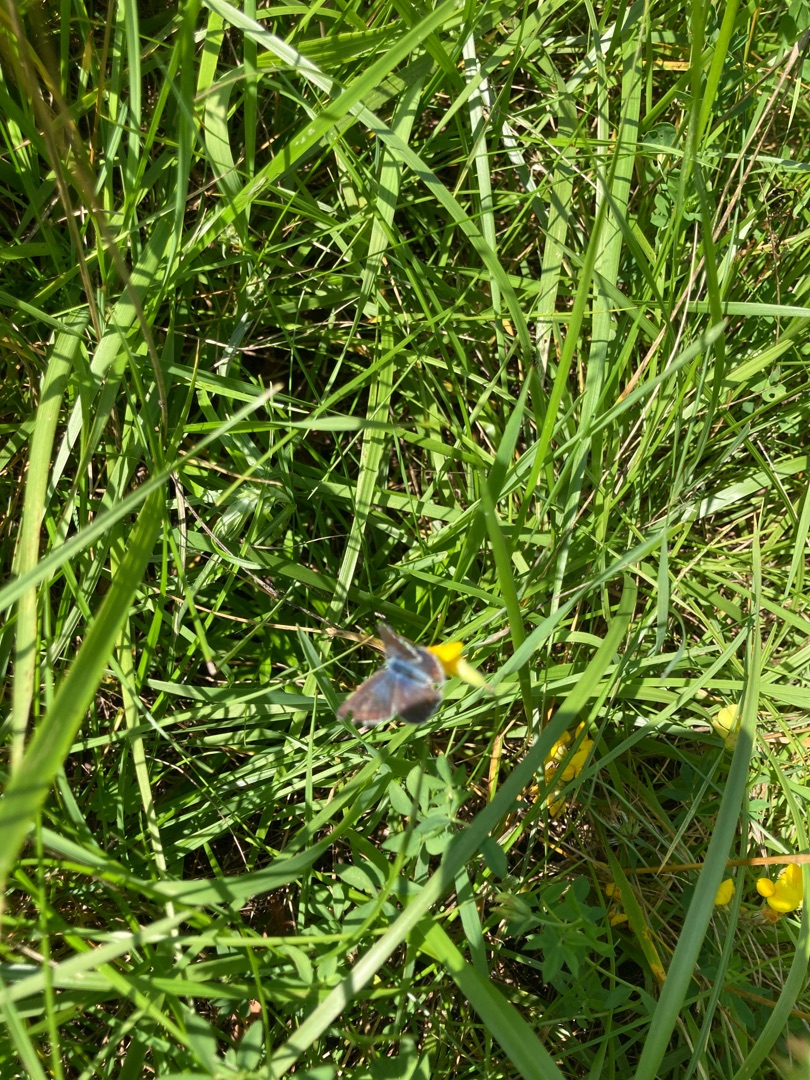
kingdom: Animalia
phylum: Arthropoda
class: Insecta
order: Lepidoptera
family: Lycaenidae
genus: Polyommatus
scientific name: Polyommatus icarus
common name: Almindelig blåfugl
